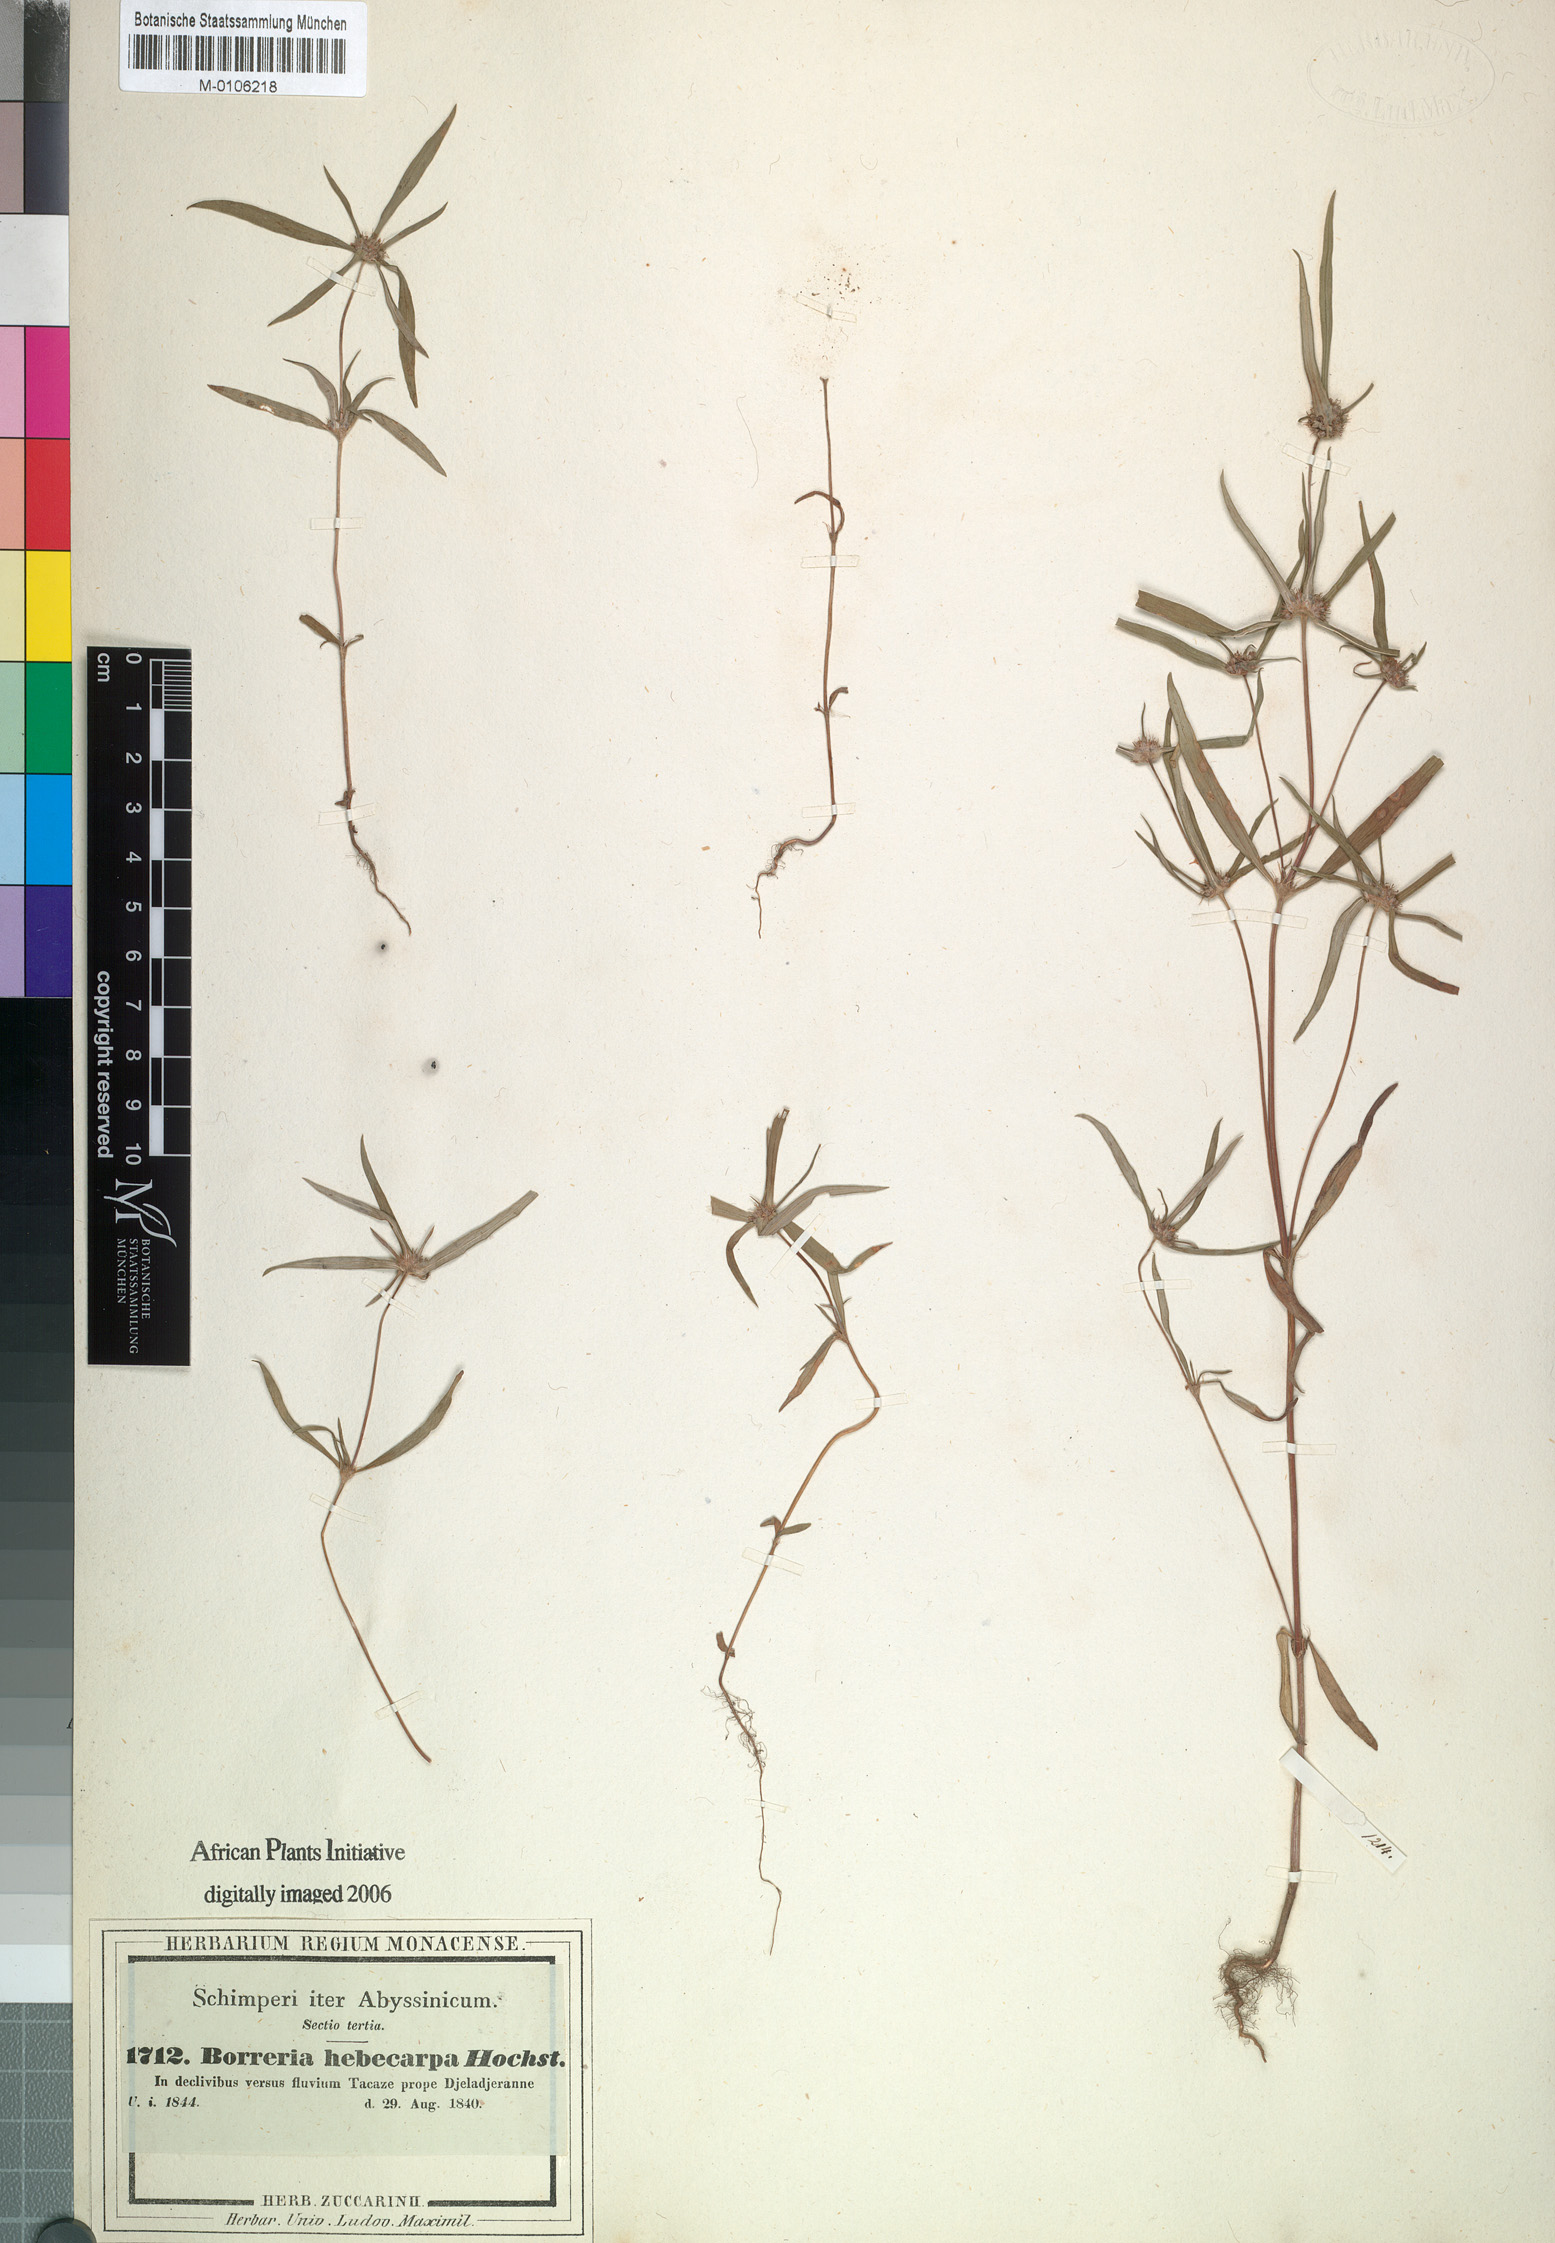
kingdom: Plantae
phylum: Tracheophyta
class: Magnoliopsida
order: Gentianales
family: Rubiaceae
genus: Spermacoce
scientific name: Spermacoce chaetocephala
